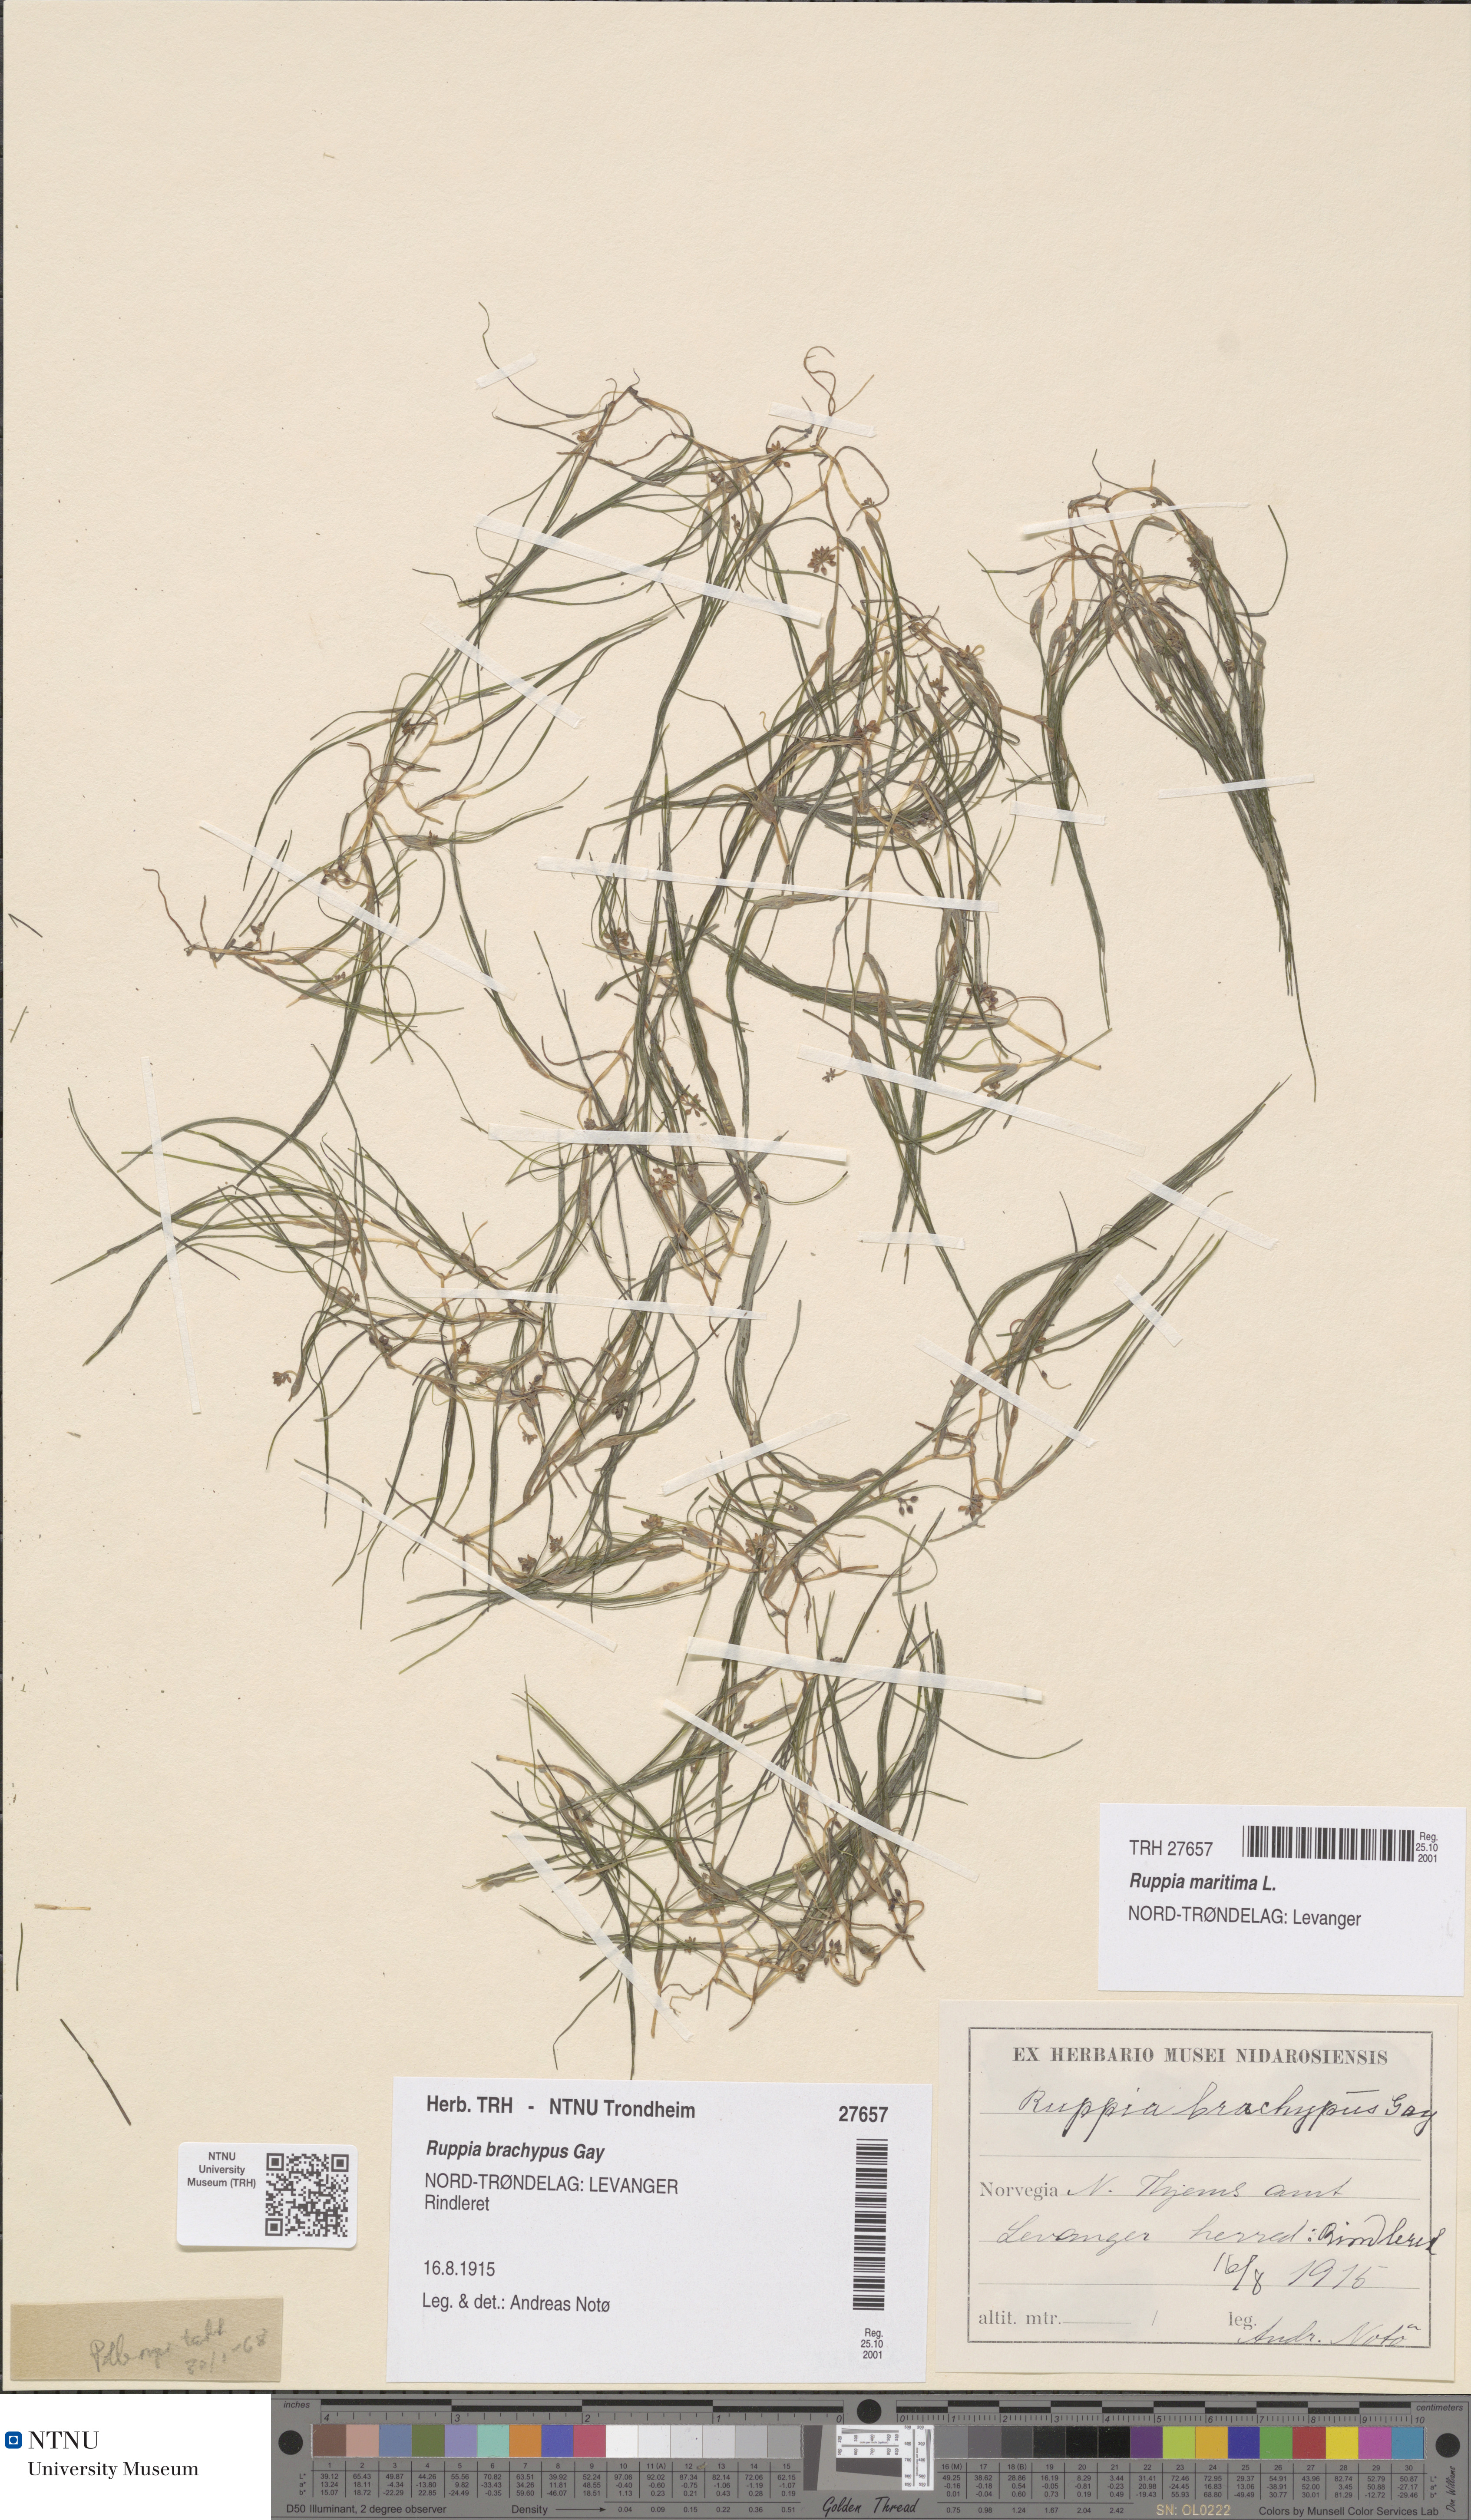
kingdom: Plantae
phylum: Tracheophyta
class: Liliopsida
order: Alismatales
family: Ruppiaceae
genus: Ruppia
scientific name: Ruppia maritima
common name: Beaked tasselweed
